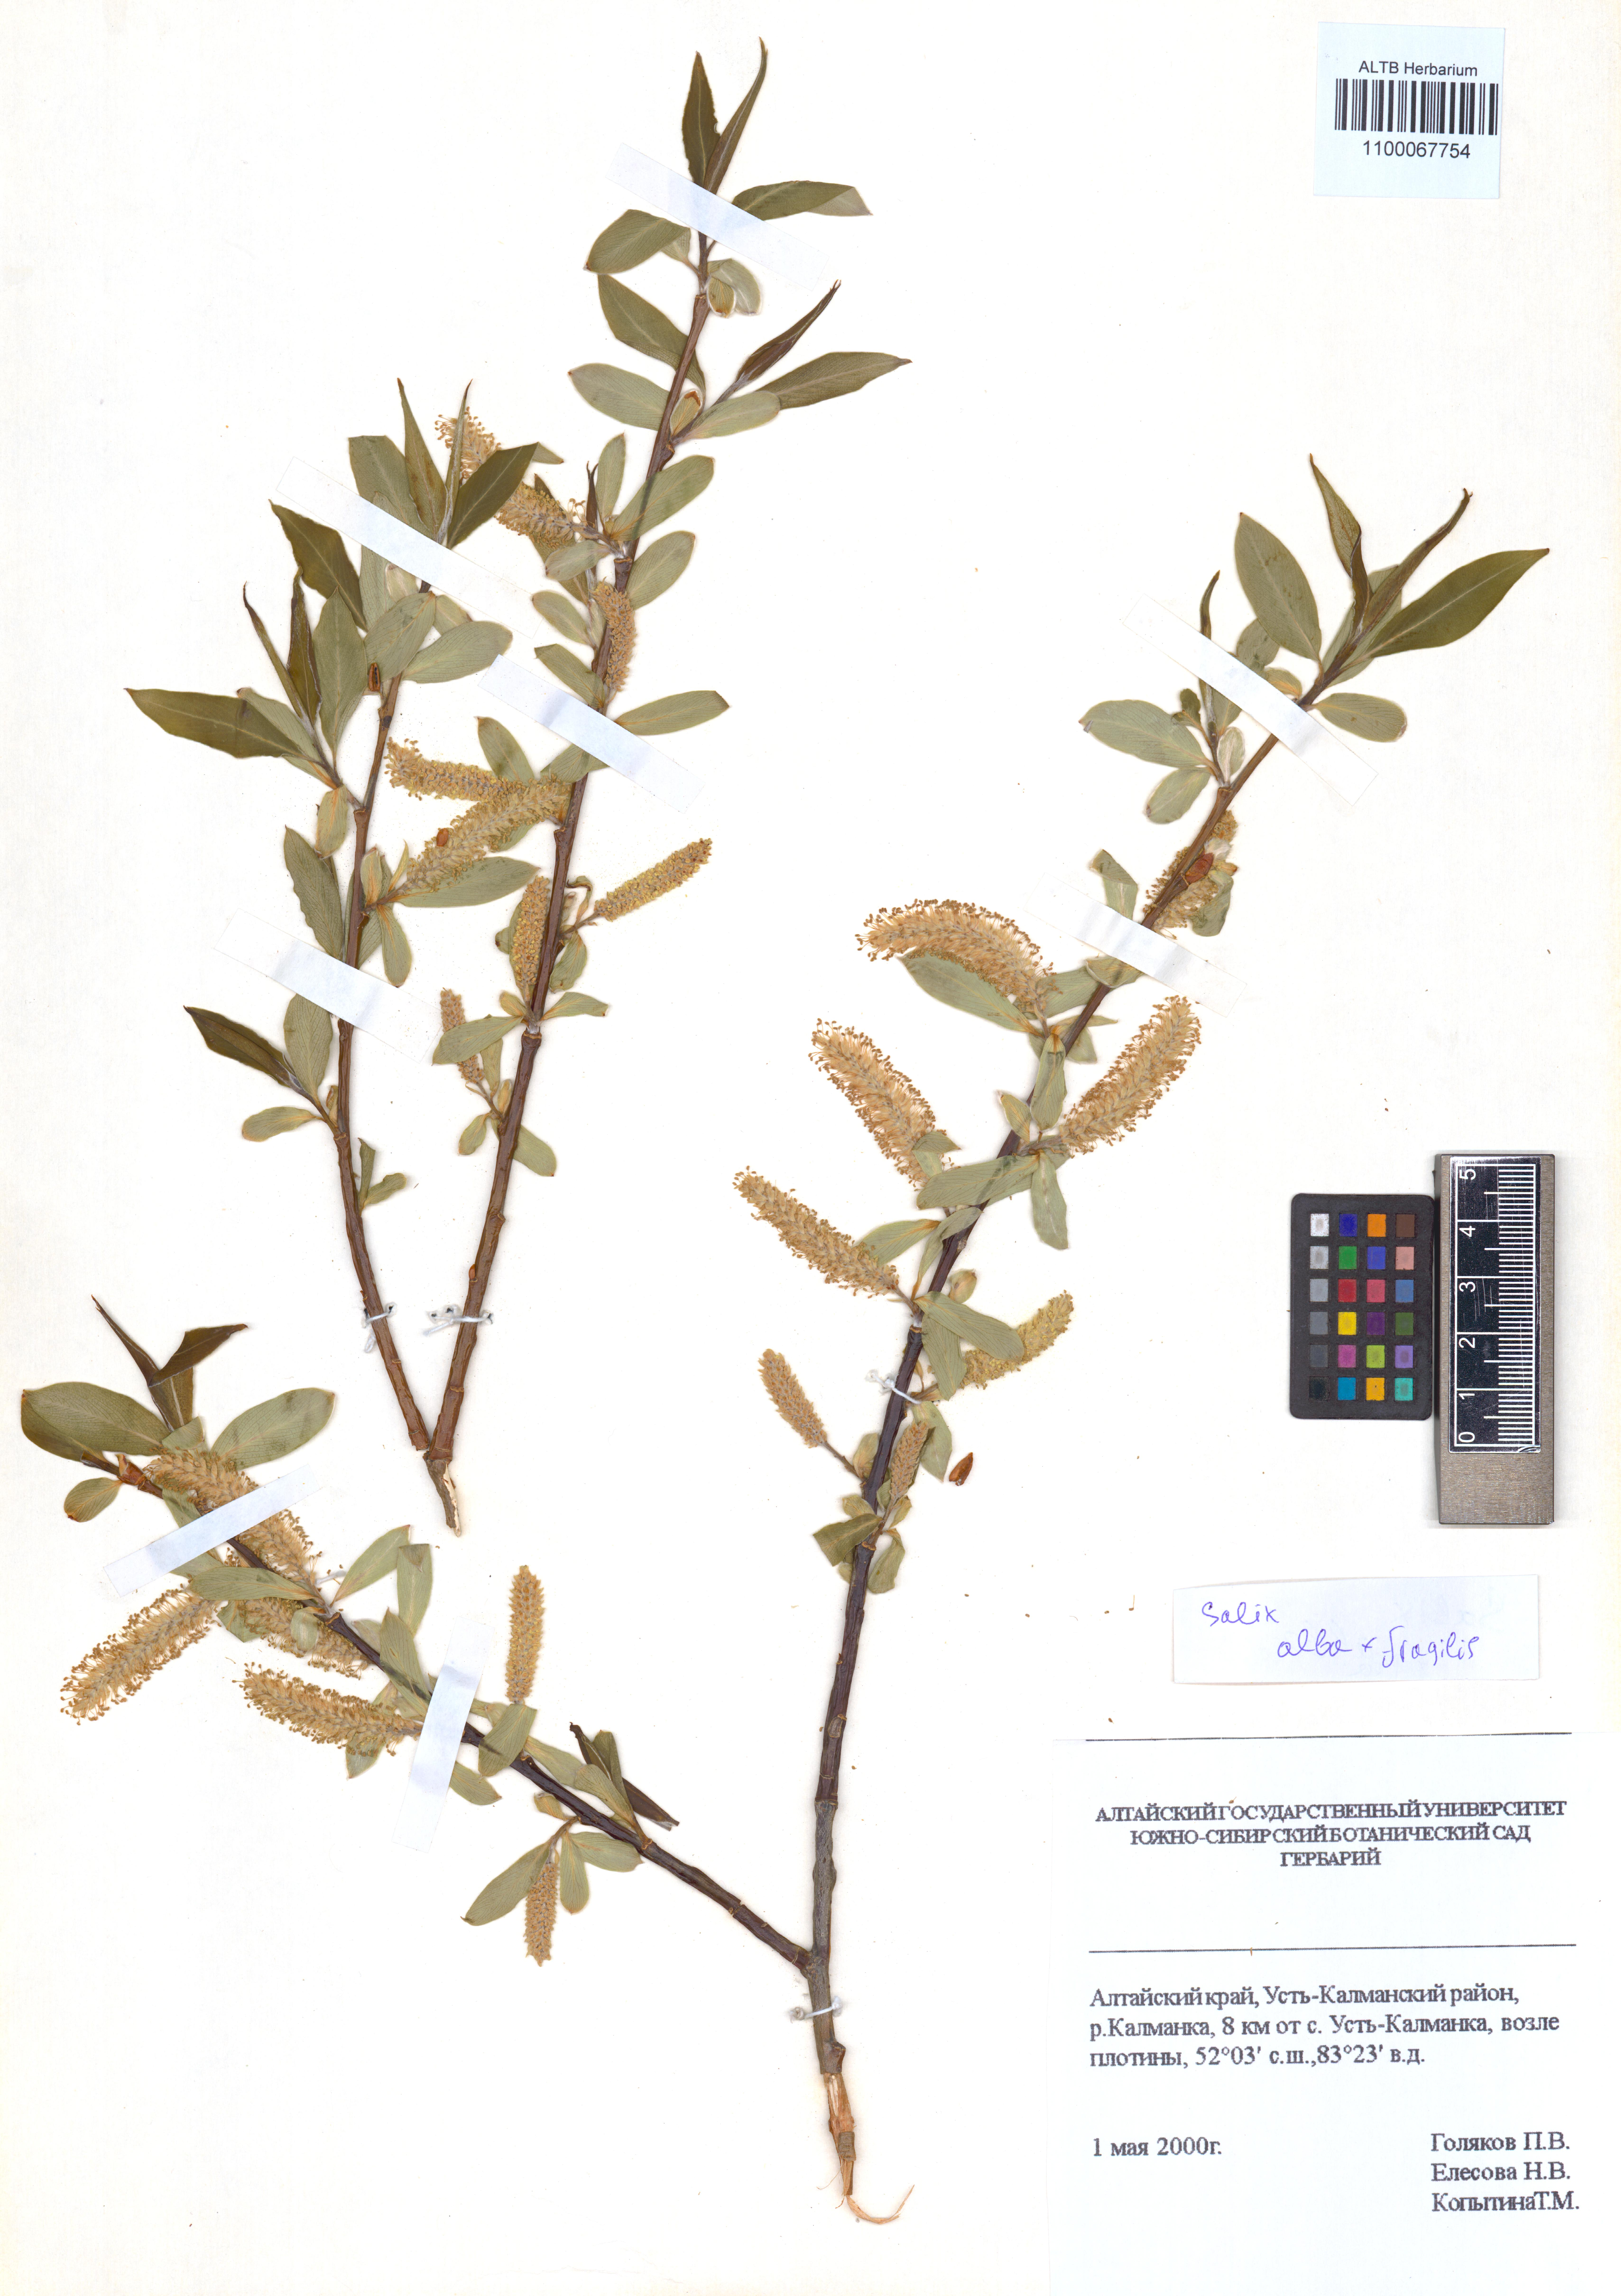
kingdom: Plantae
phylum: Tracheophyta
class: Magnoliopsida
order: Malpighiales
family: Salicaceae
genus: Salix
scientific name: Salix alba
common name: White willow
